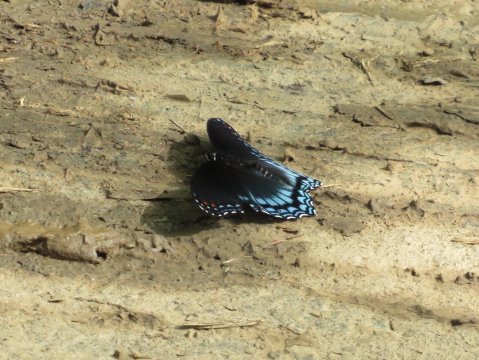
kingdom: Animalia
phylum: Arthropoda
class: Insecta
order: Lepidoptera
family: Nymphalidae
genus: Limenitis
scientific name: Limenitis arthemis
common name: Red-spotted Admiral
